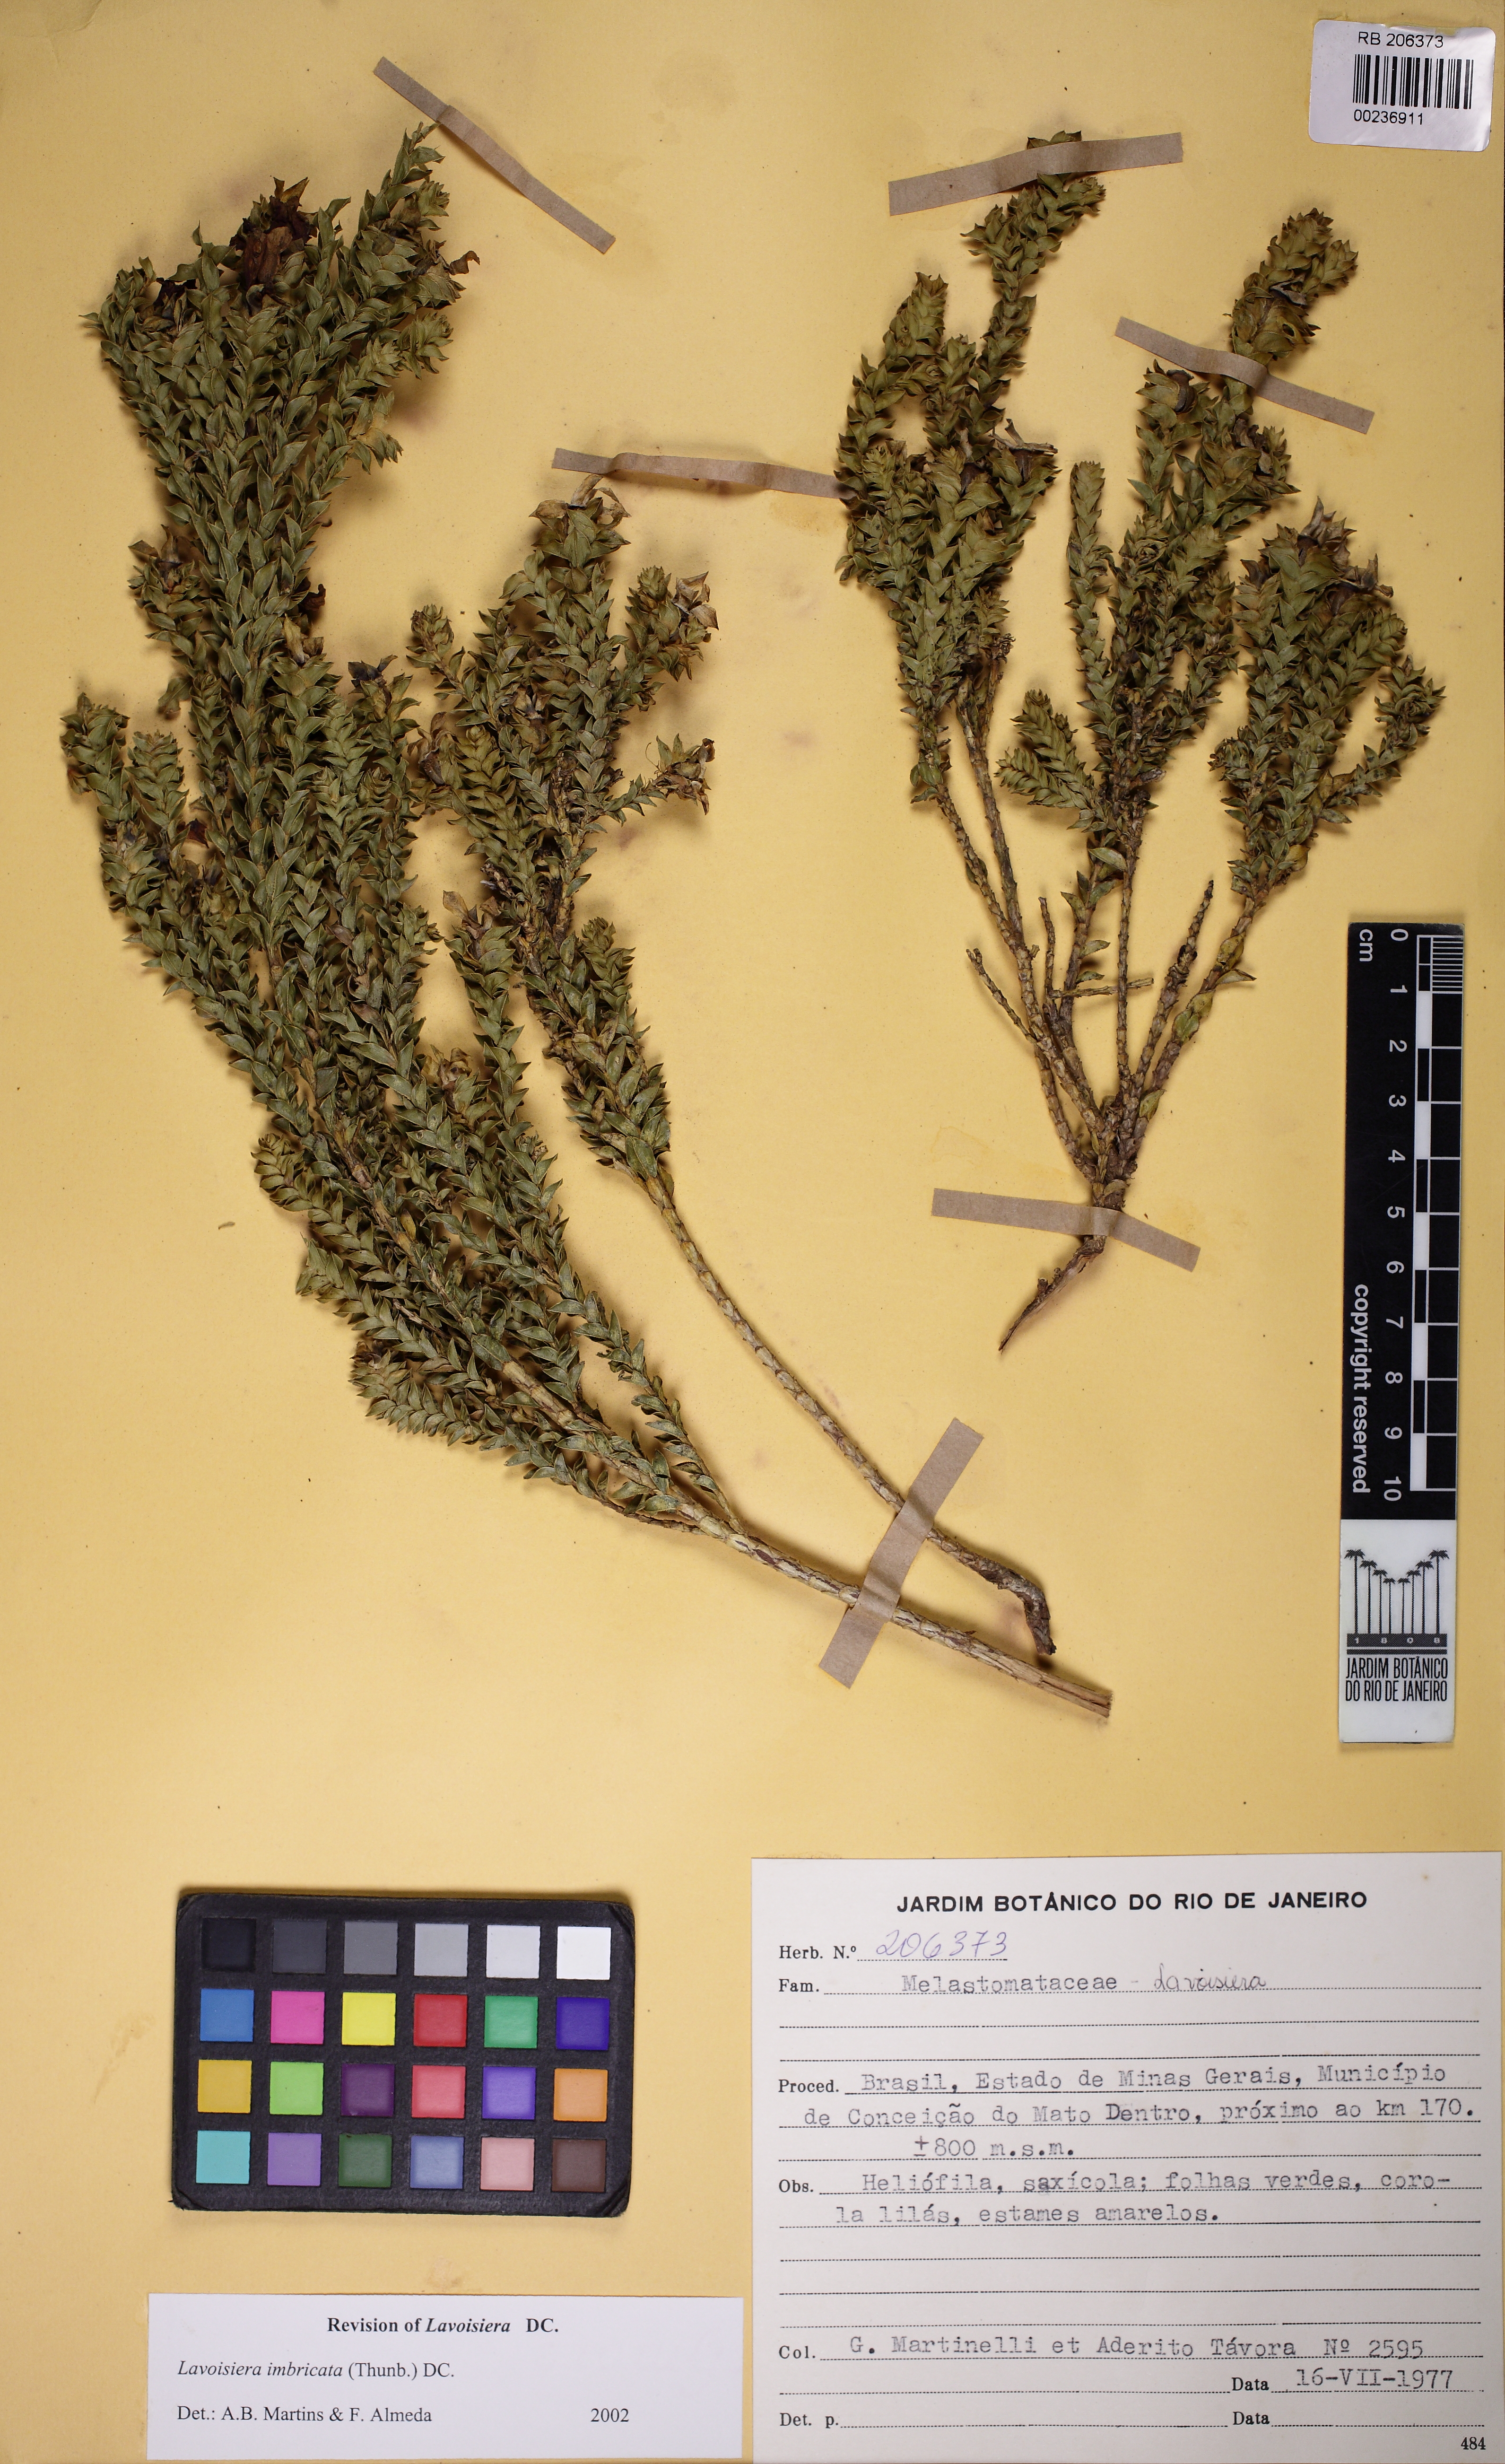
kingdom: Plantae
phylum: Tracheophyta
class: Magnoliopsida
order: Myrtales
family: Melastomataceae
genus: Microlicia
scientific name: Microlicia cataphracta
